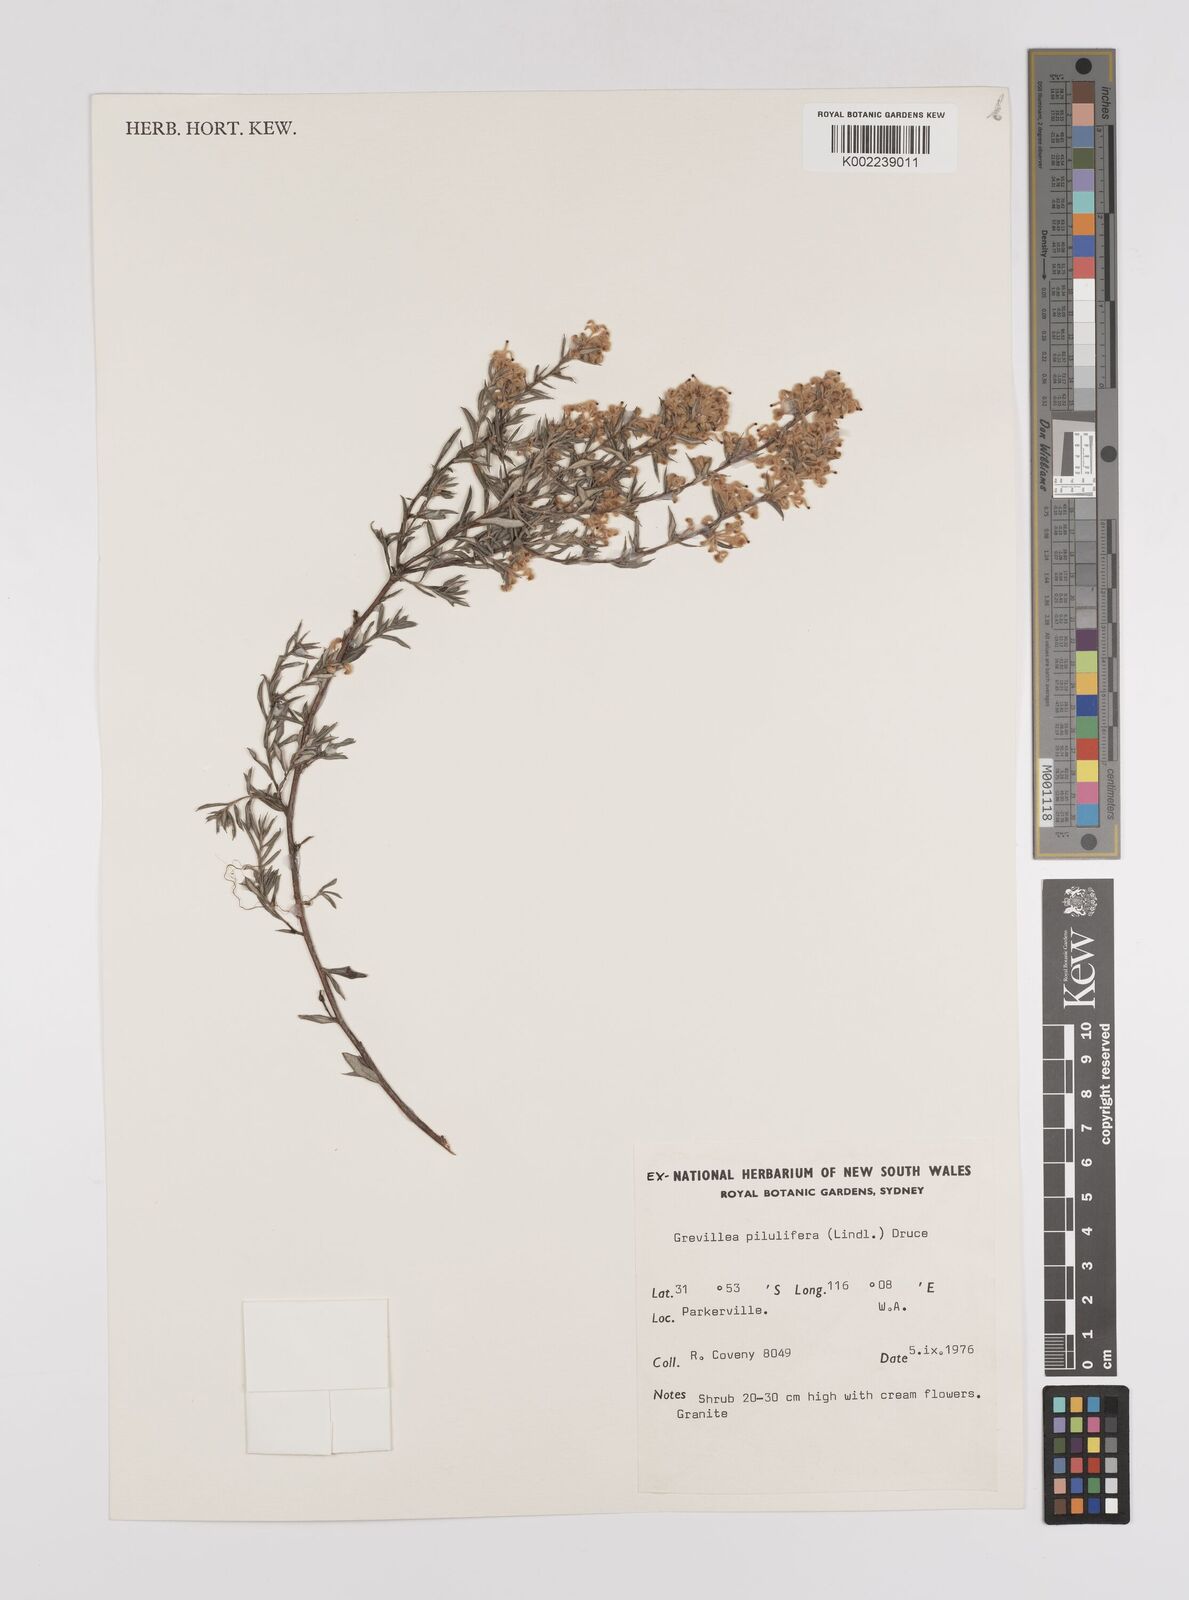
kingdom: Plantae
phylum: Tracheophyta
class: Magnoliopsida
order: Proteales
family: Proteaceae
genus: Grevillea
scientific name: Grevillea pilulifera
